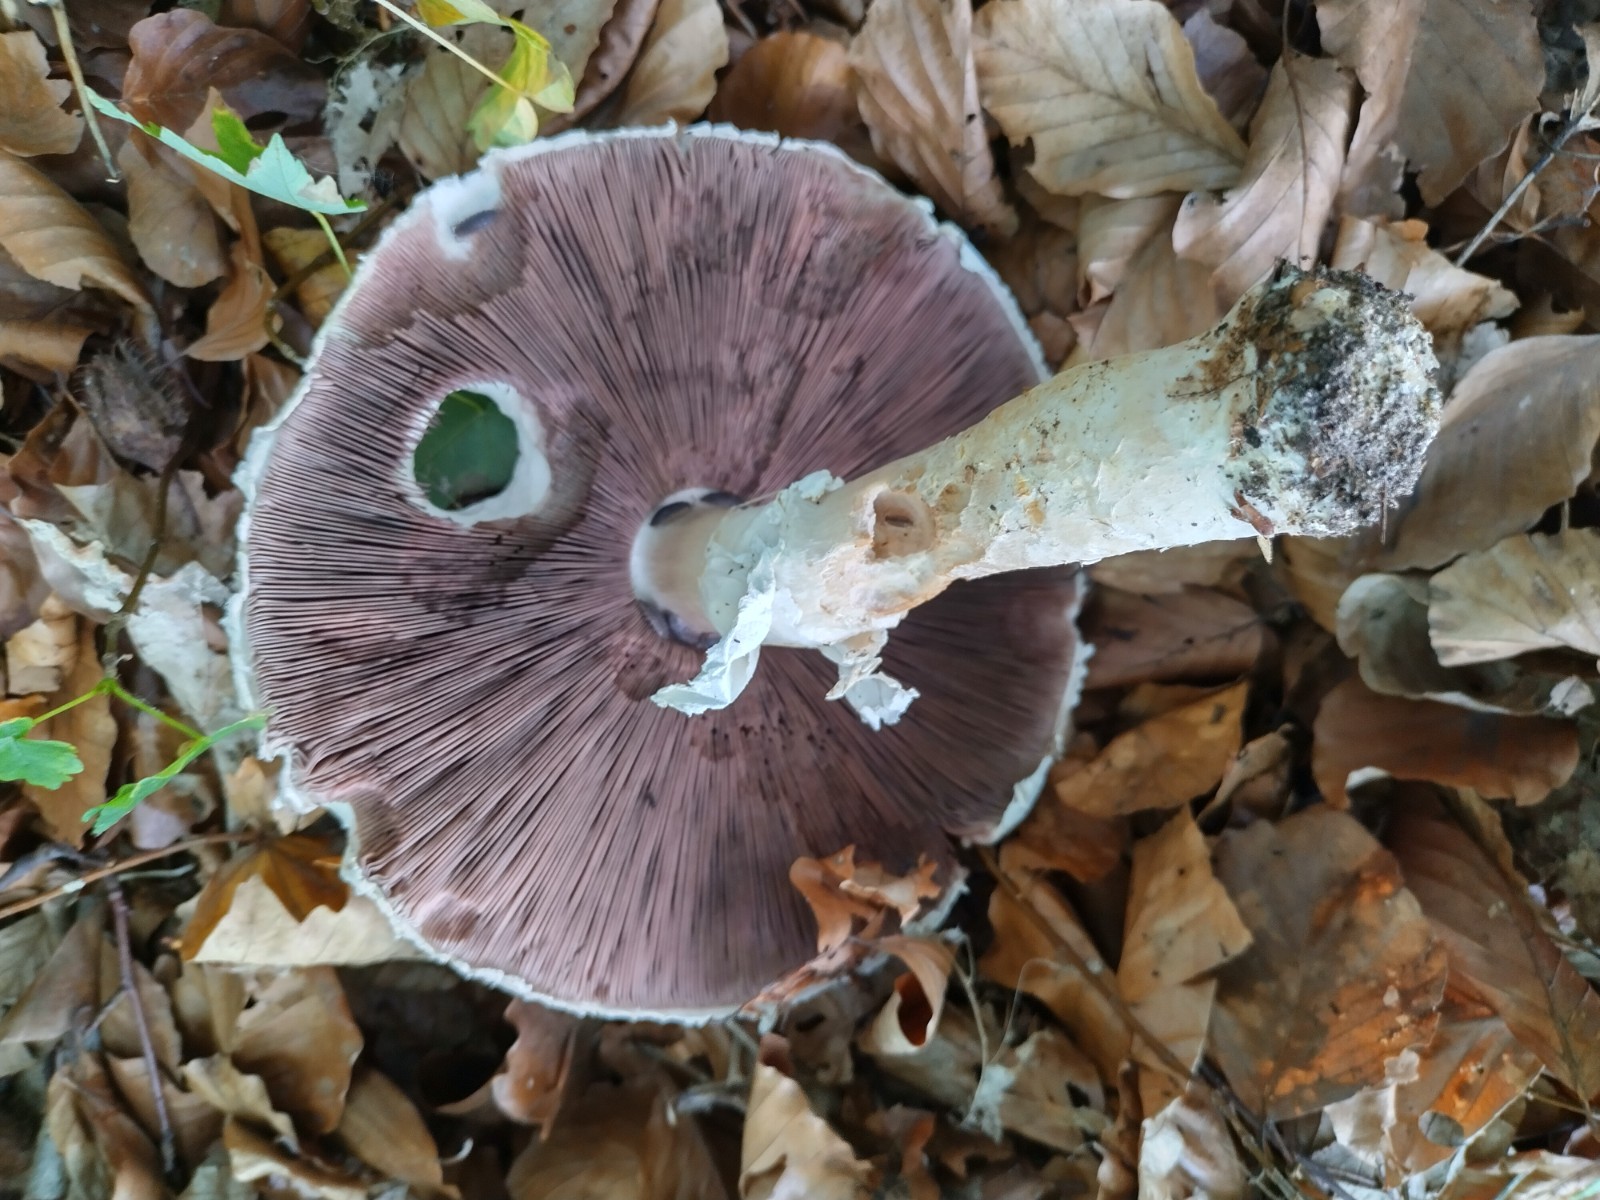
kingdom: Fungi
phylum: Basidiomycota
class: Agaricomycetes
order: Agaricales
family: Agaricaceae
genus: Agaricus
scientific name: Agaricus
